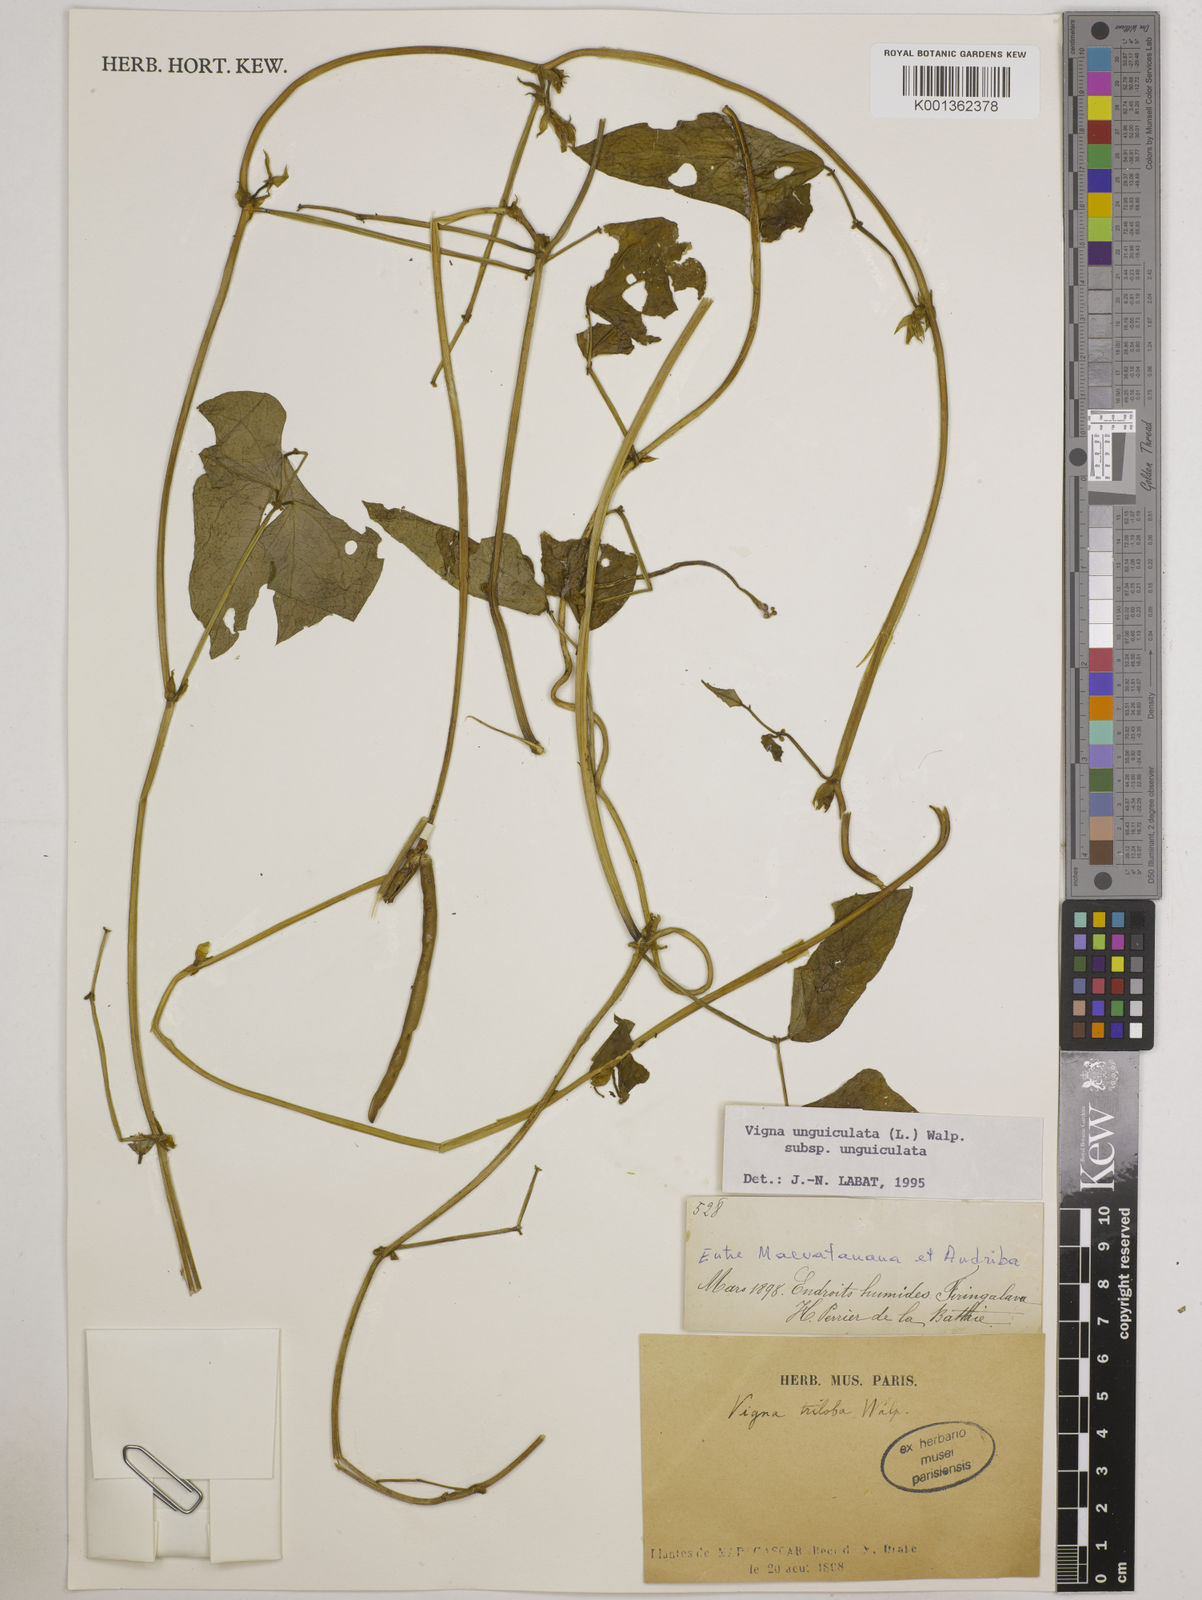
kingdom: Plantae
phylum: Tracheophyta
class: Magnoliopsida
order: Fabales
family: Fabaceae
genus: Vigna
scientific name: Vigna
